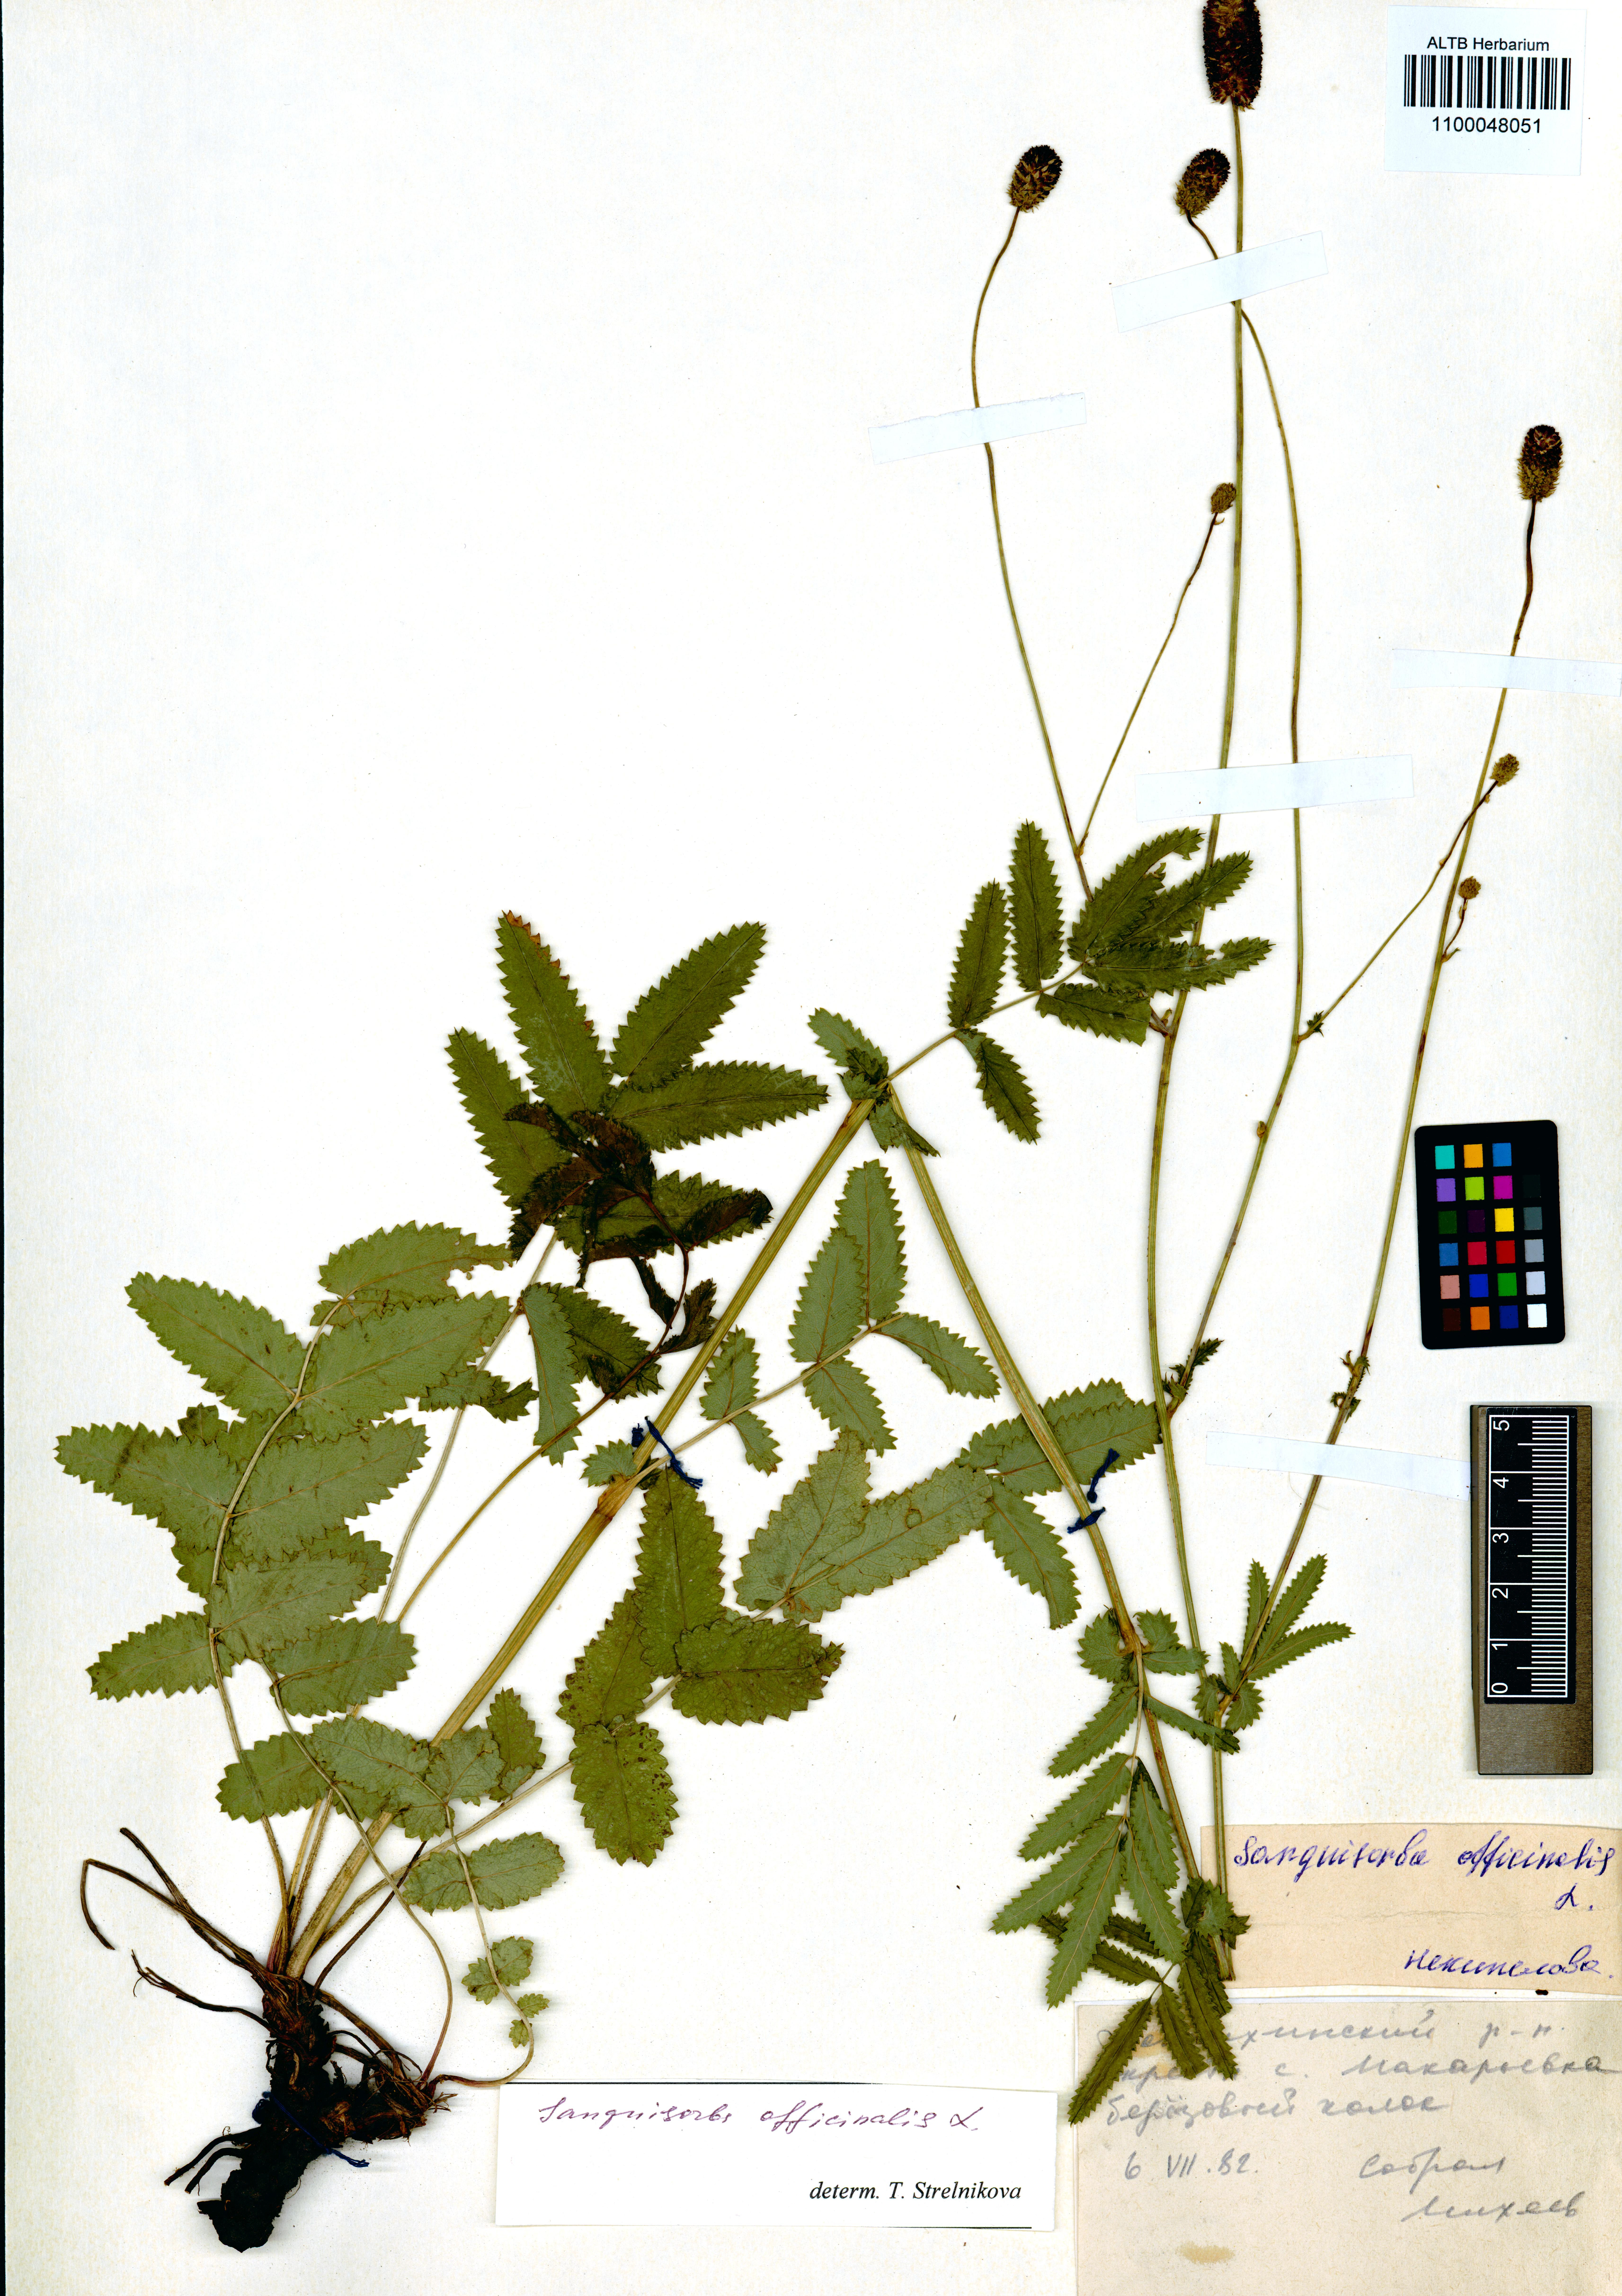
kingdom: Plantae
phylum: Tracheophyta
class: Magnoliopsida
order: Rosales
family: Rosaceae
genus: Sanguisorba
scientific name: Sanguisorba officinalis
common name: Great burnet
